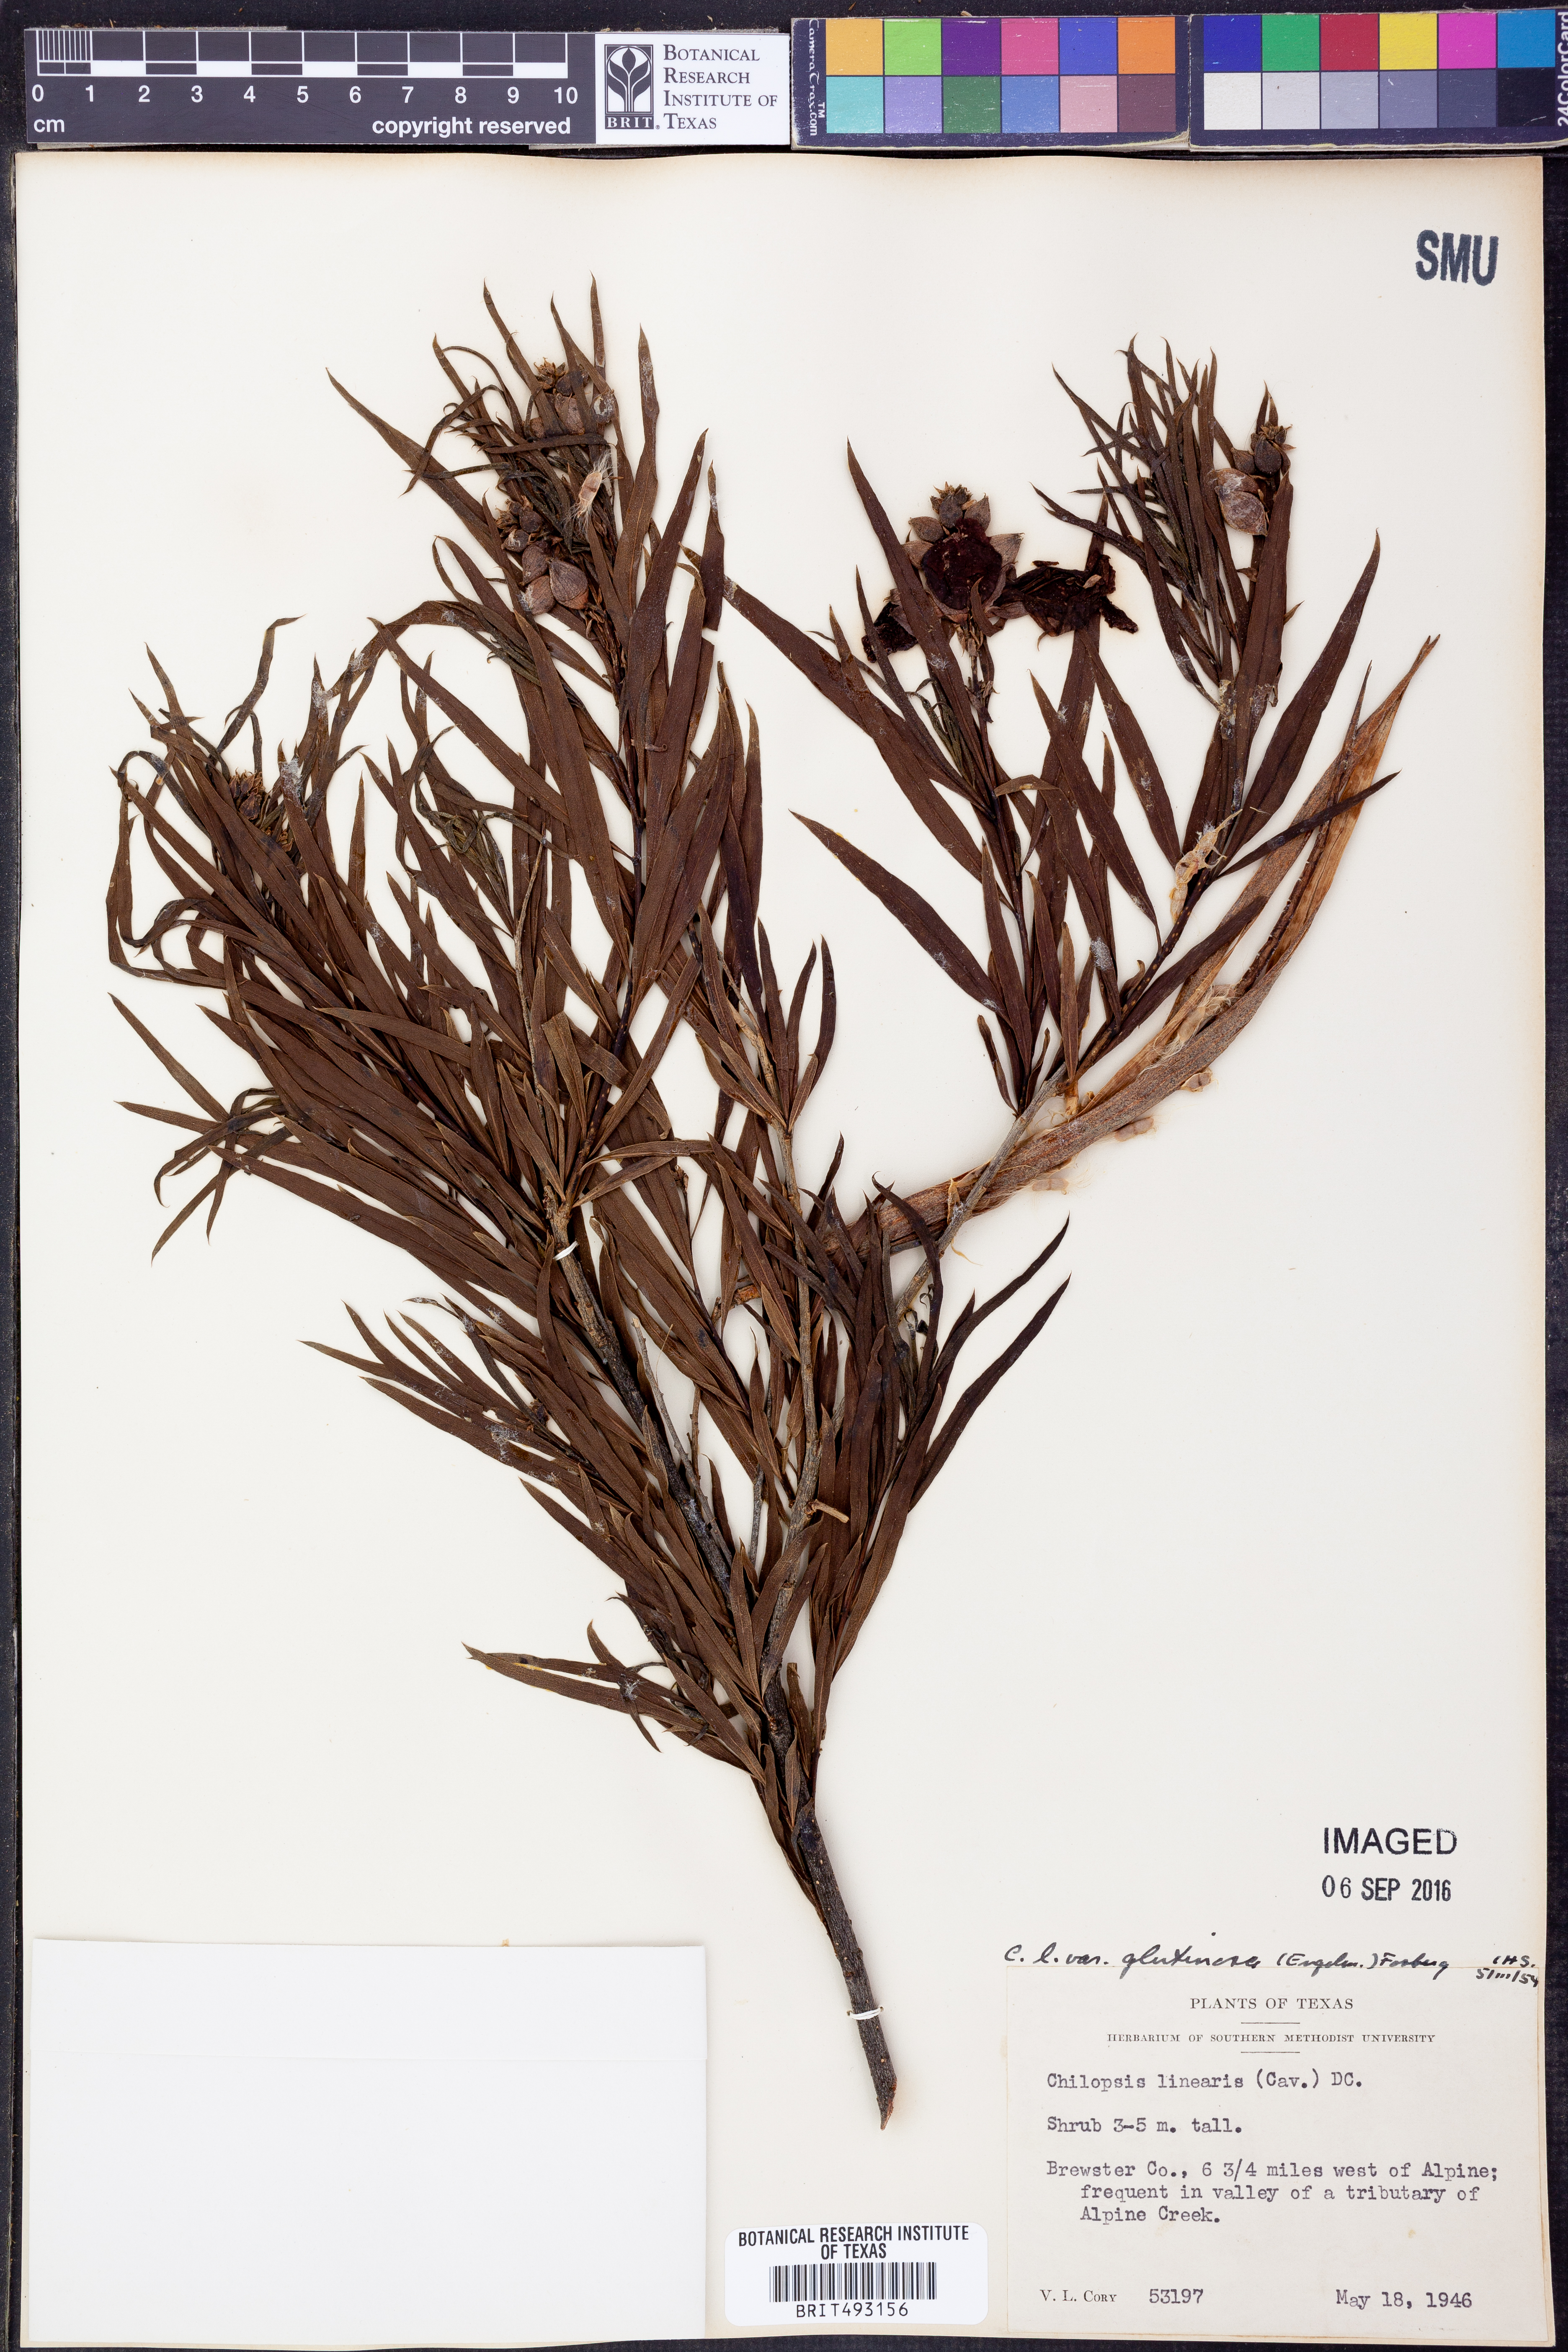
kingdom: Plantae
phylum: Tracheophyta
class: Magnoliopsida
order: Lamiales
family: Bignoniaceae
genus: Chilopsis
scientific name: Chilopsis linearis
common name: Desert-willow
